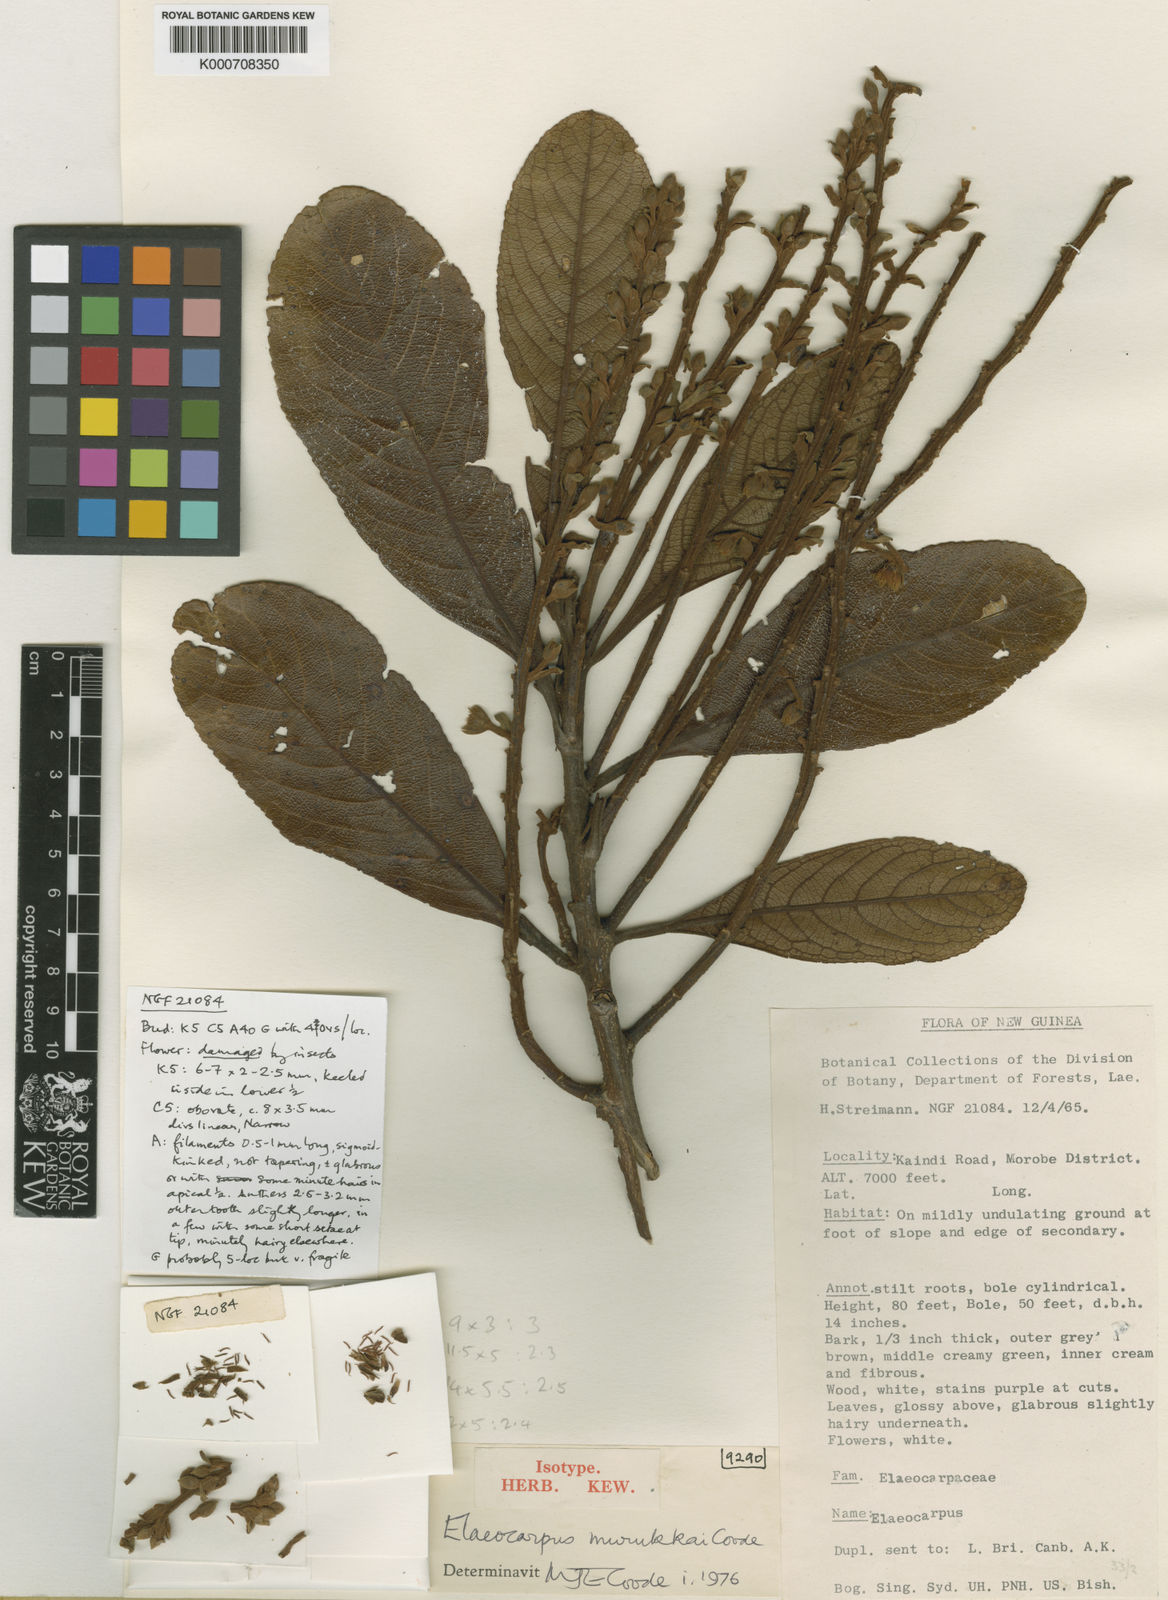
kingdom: Plantae
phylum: Tracheophyta
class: Magnoliopsida
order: Oxalidales
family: Elaeocarpaceae
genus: Elaeocarpus
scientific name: Elaeocarpus murukkai
